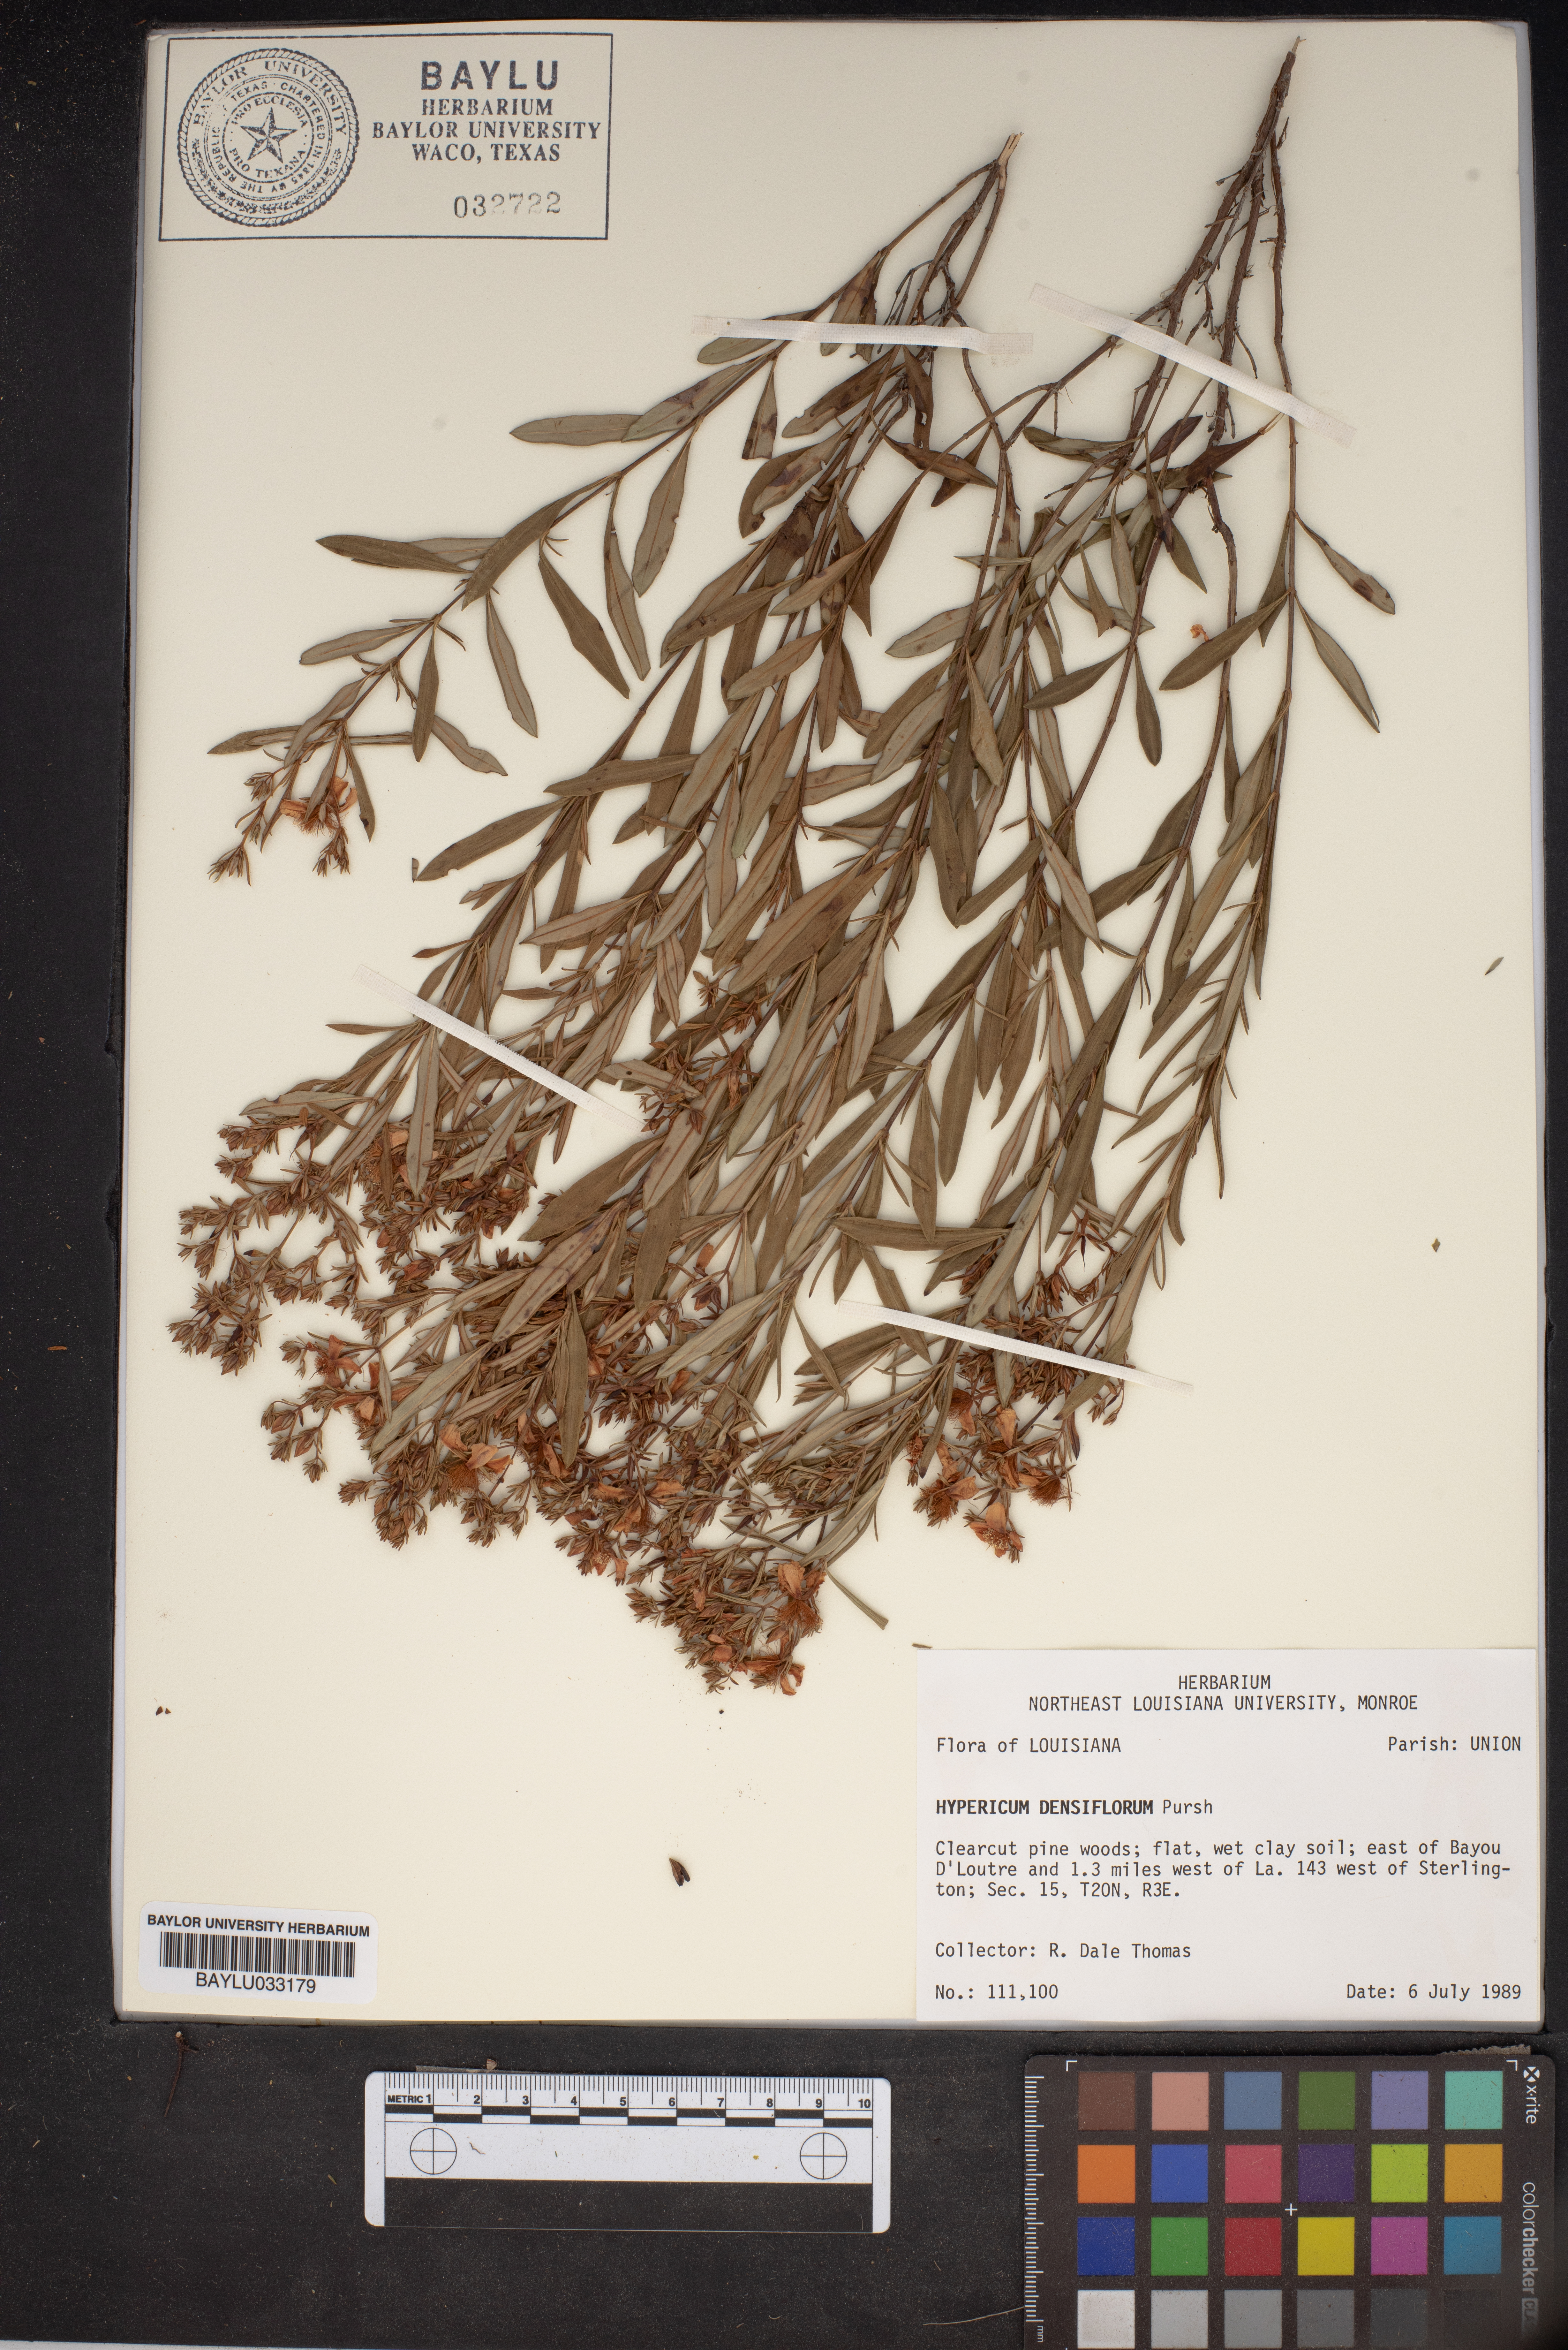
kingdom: Plantae
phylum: Tracheophyta
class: Magnoliopsida
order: Malpighiales
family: Hypericaceae
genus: Hypericum
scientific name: Hypericum densiflorum
